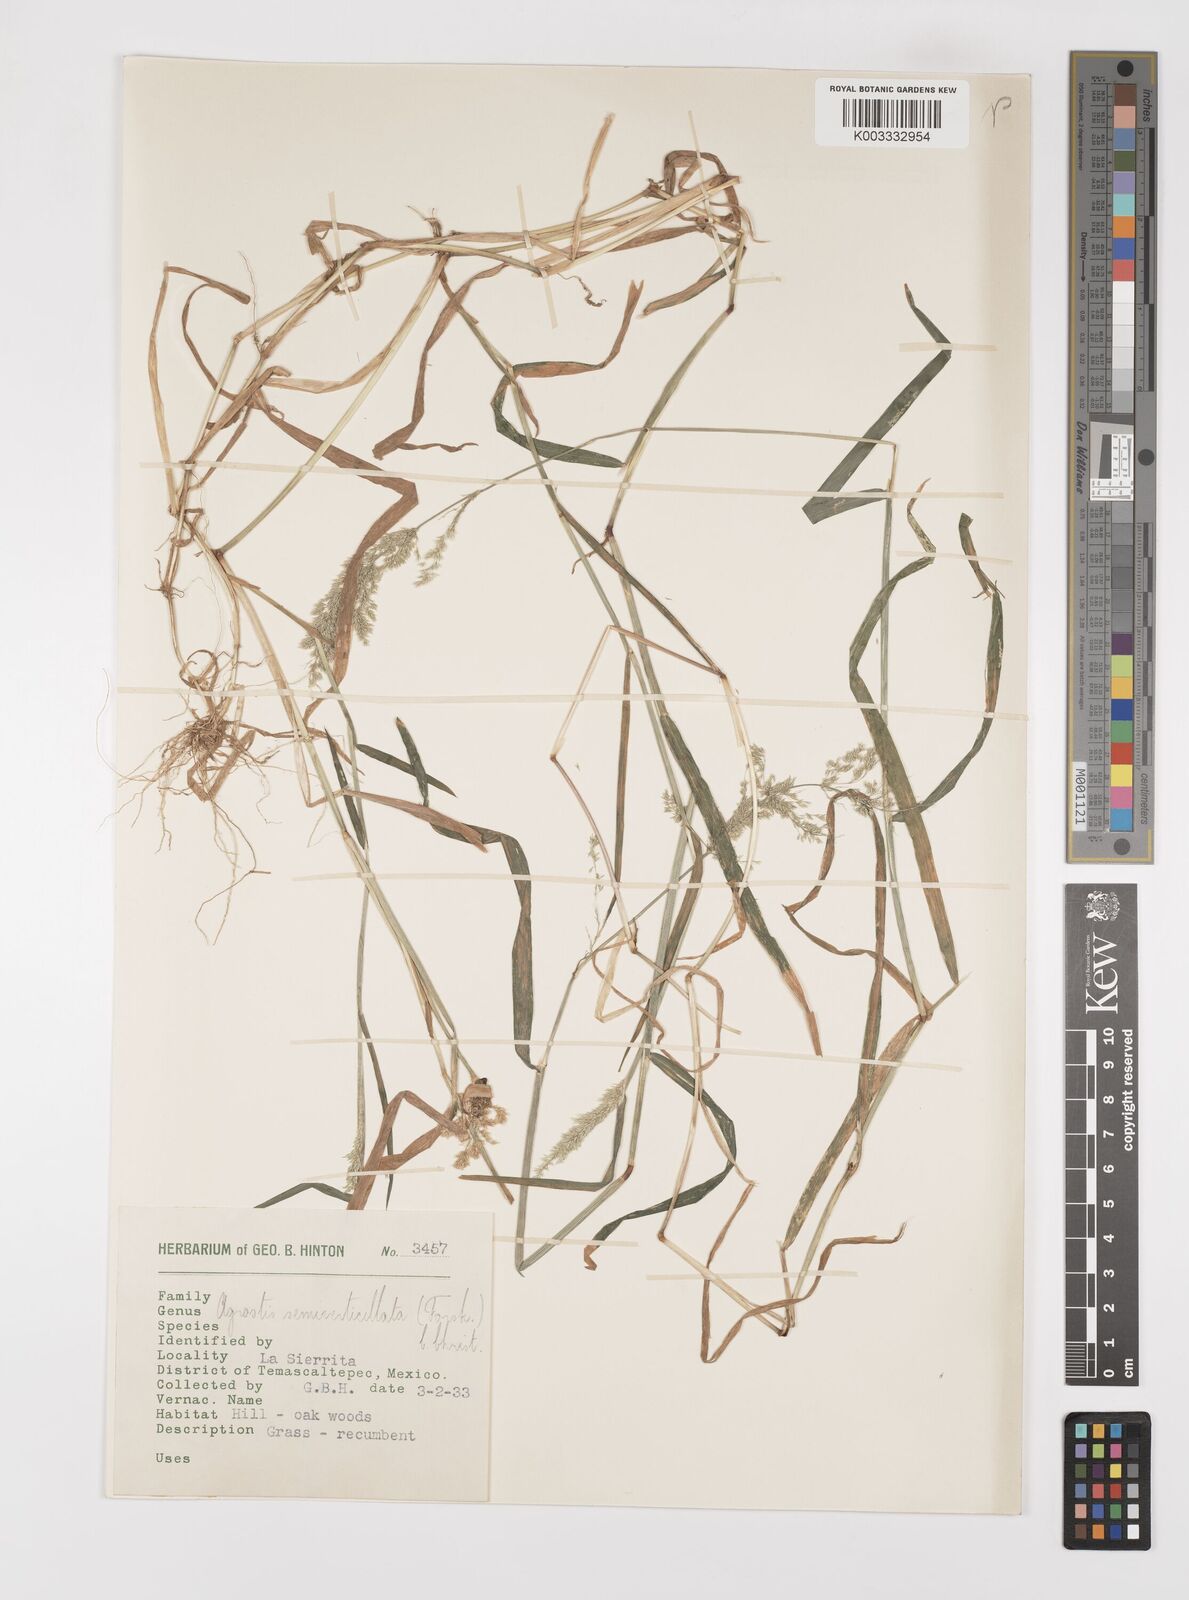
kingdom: Plantae
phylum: Tracheophyta
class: Liliopsida
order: Poales
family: Poaceae
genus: Polypogon
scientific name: Polypogon viridis
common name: Water bent
